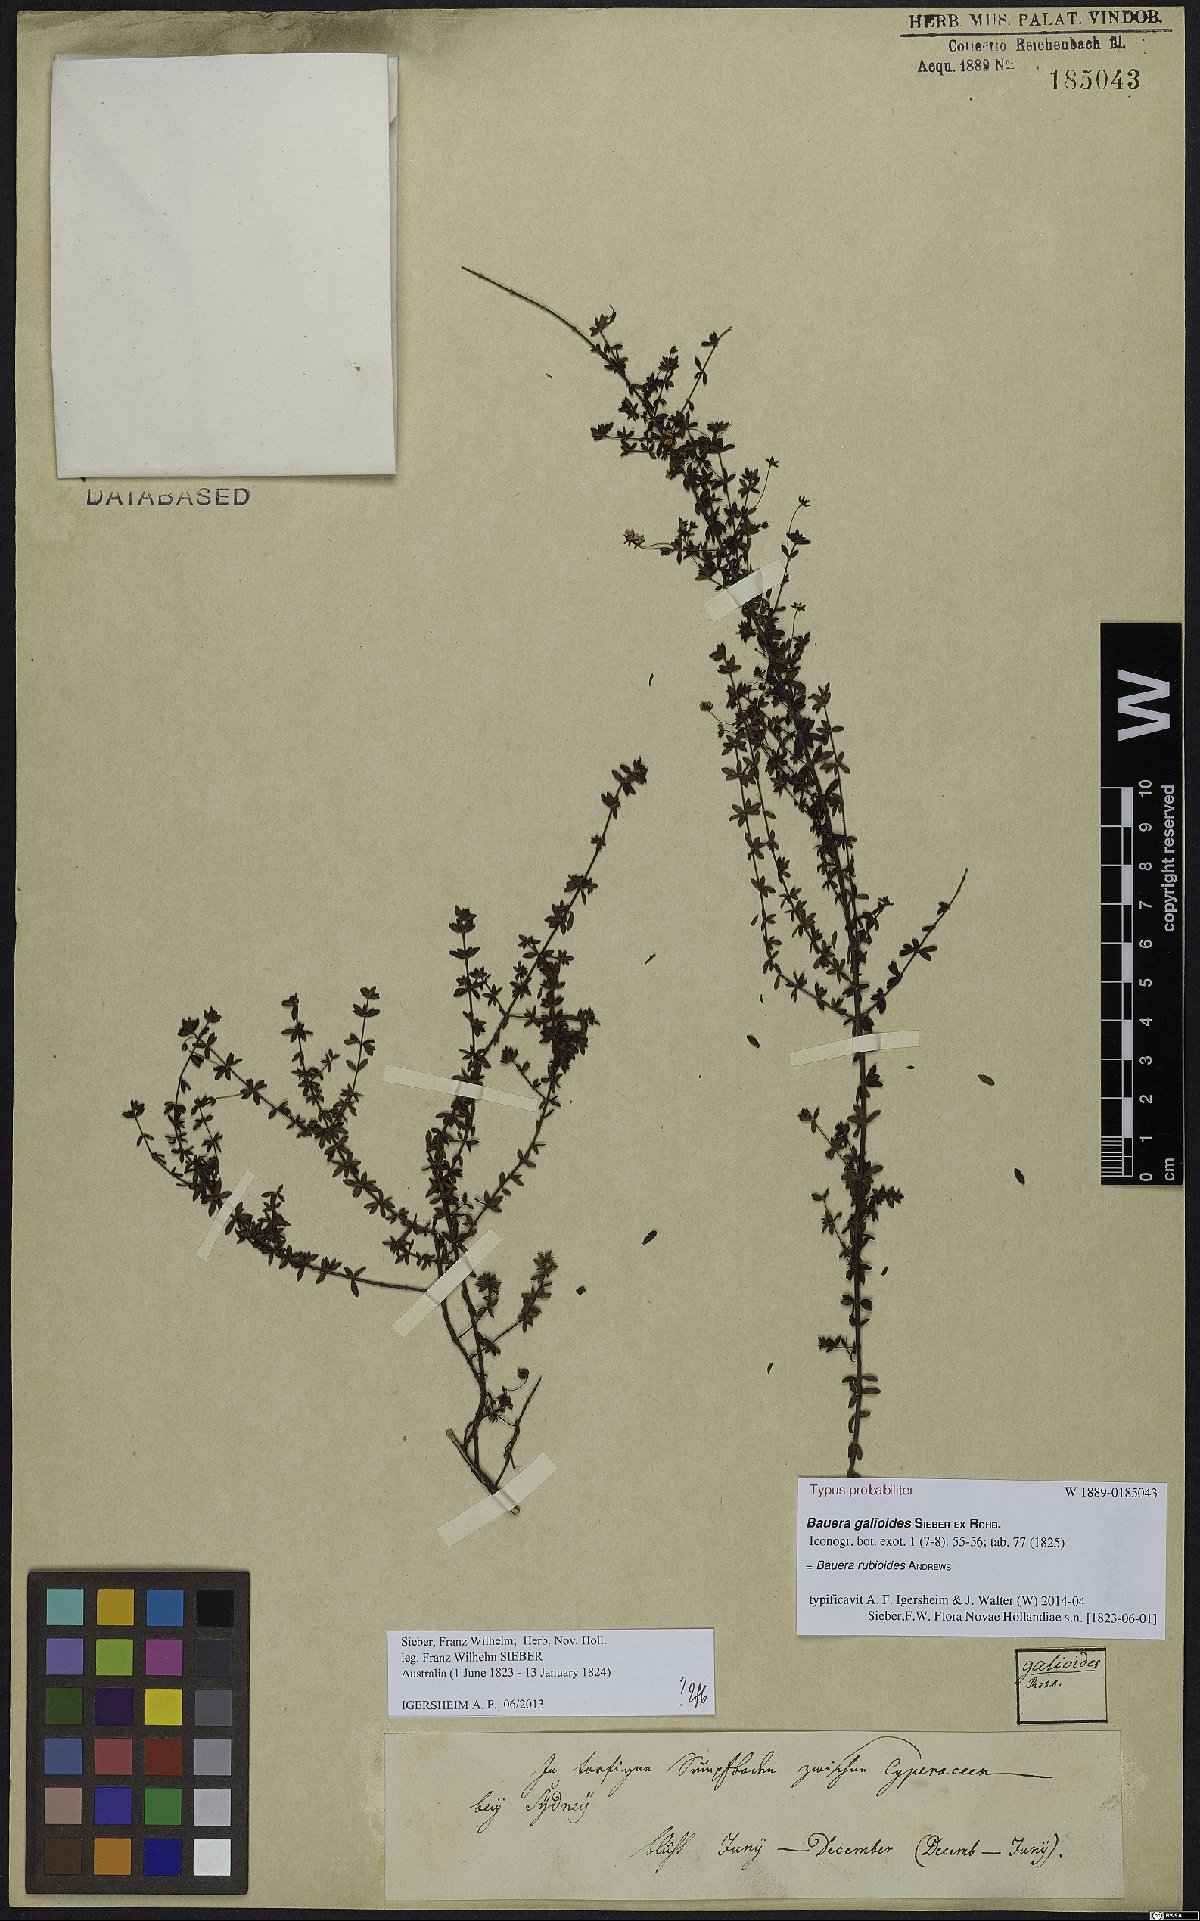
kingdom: Plantae
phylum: Tracheophyta
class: Magnoliopsida
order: Oxalidales
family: Cunoniaceae
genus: Bauera
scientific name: Bauera rubioides
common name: River-rose
